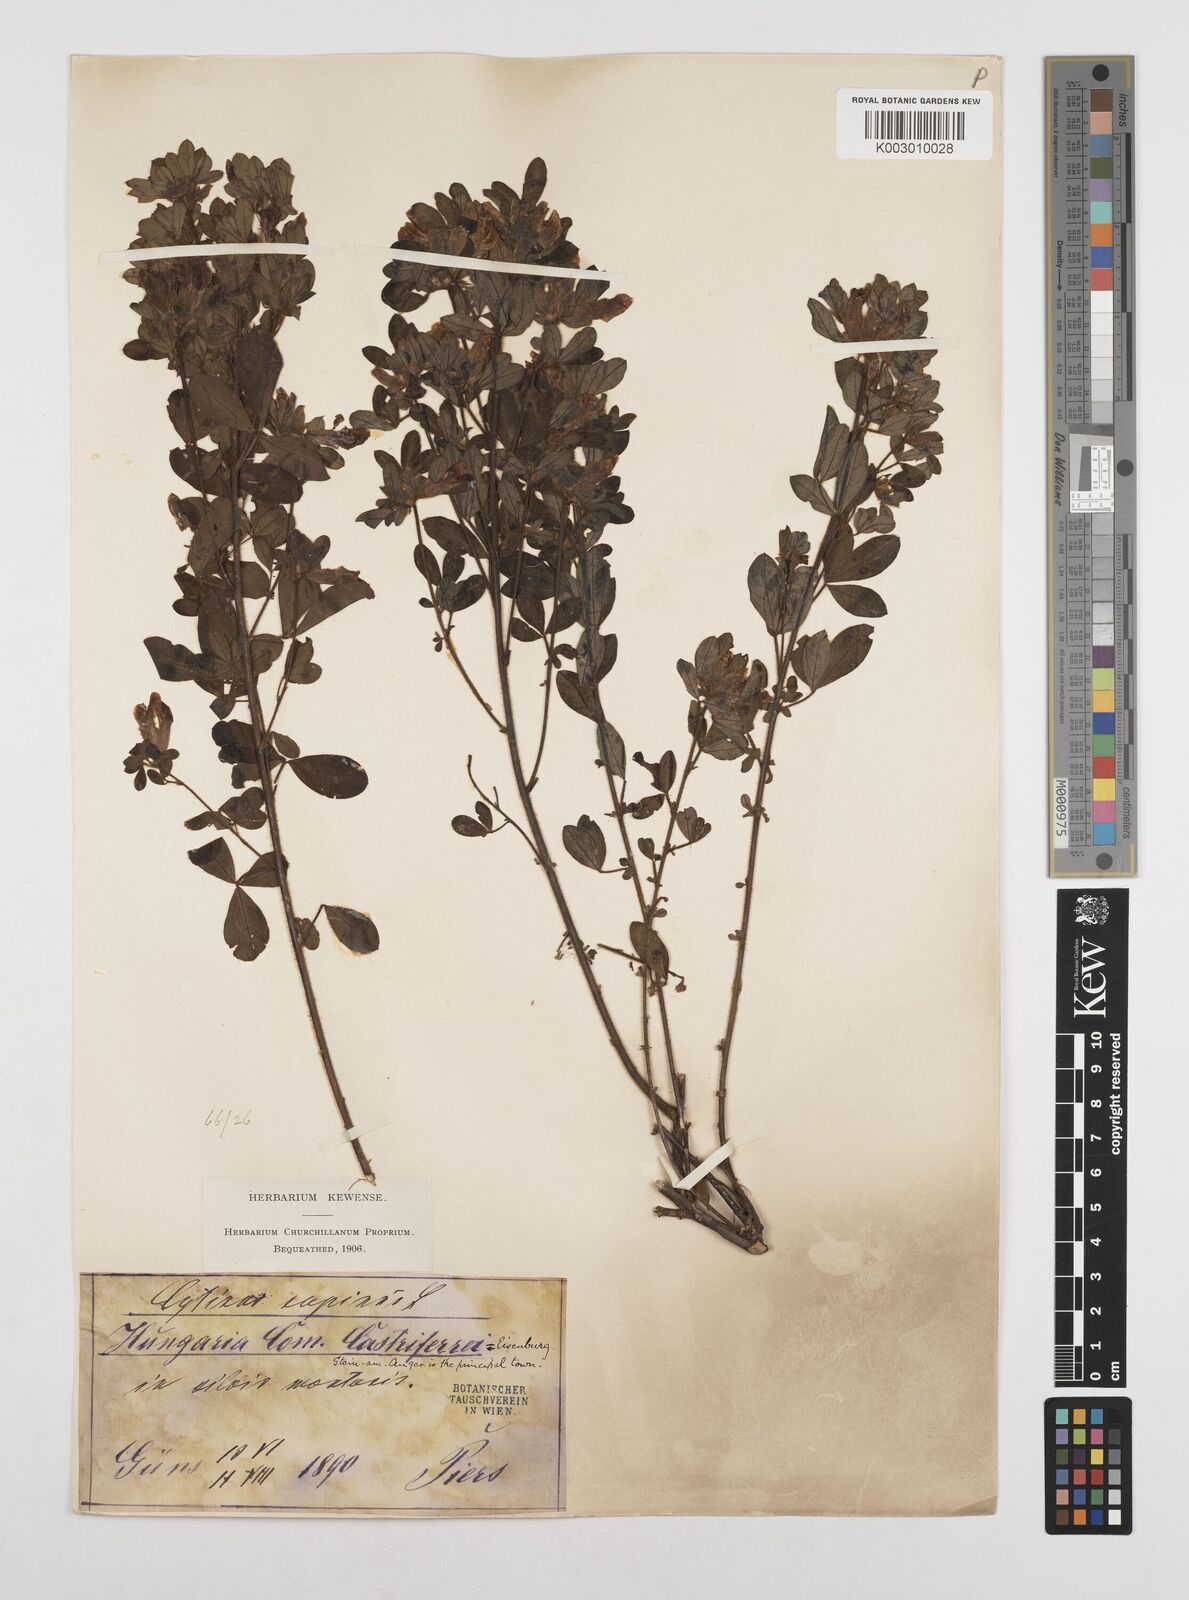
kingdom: Plantae
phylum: Tracheophyta
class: Magnoliopsida
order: Fabales
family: Fabaceae
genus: Chamaecytisus
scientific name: Chamaecytisus hirsutus
